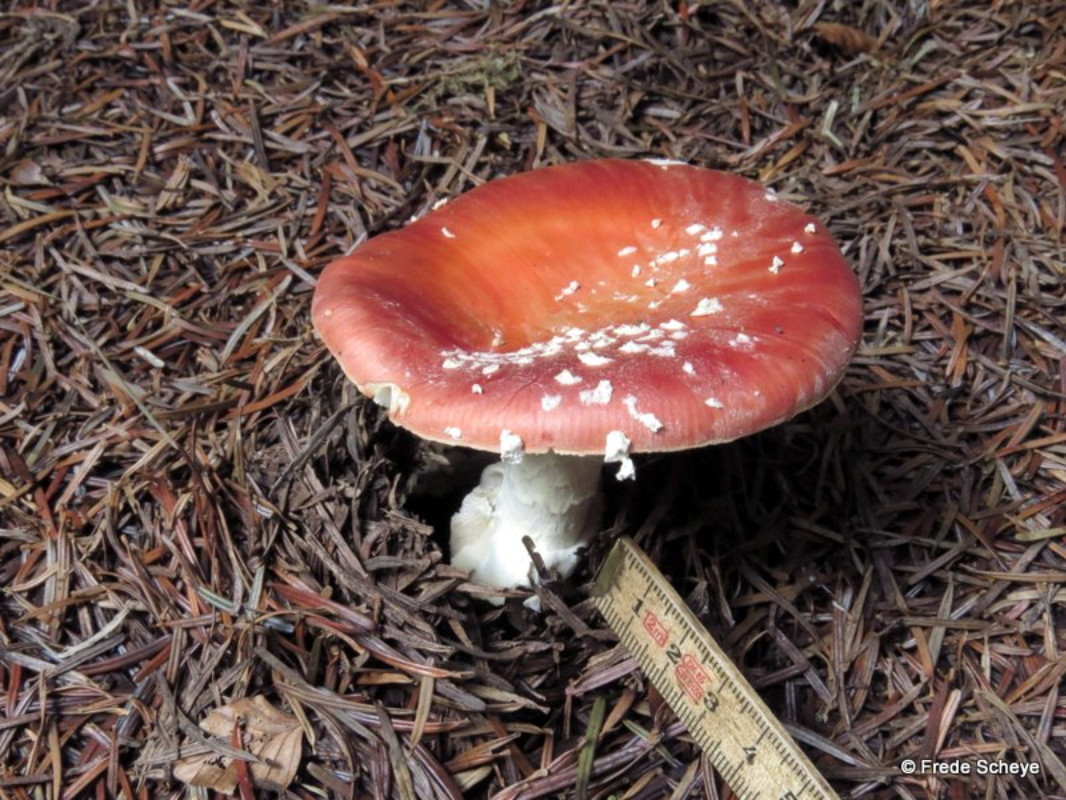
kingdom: Fungi
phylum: Basidiomycota
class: Agaricomycetes
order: Agaricales
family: Amanitaceae
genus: Amanita
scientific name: Amanita muscaria
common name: rød fluesvamp
